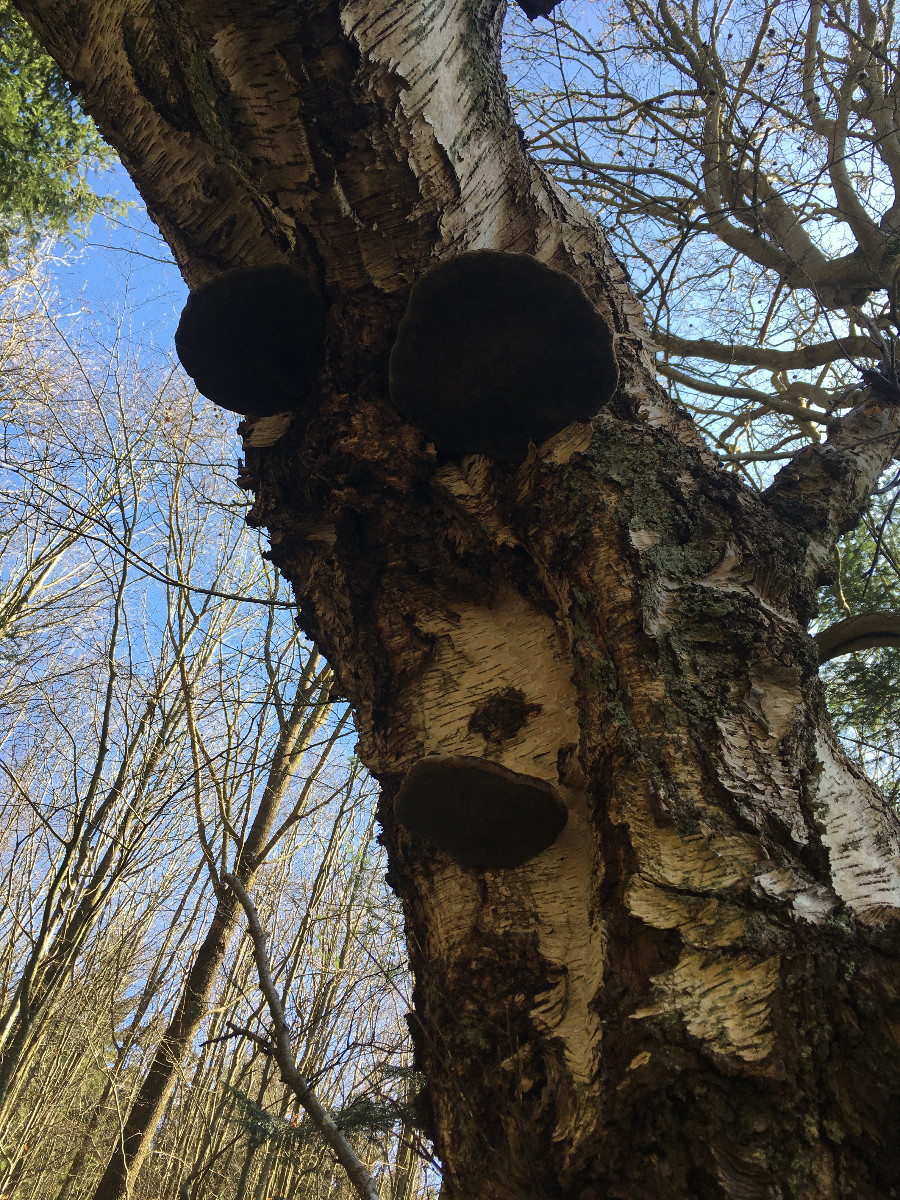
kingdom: Fungi
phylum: Basidiomycota
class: Agaricomycetes
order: Polyporales
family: Polyporaceae
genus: Fomes
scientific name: Fomes fomentarius
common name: tøndersvamp
